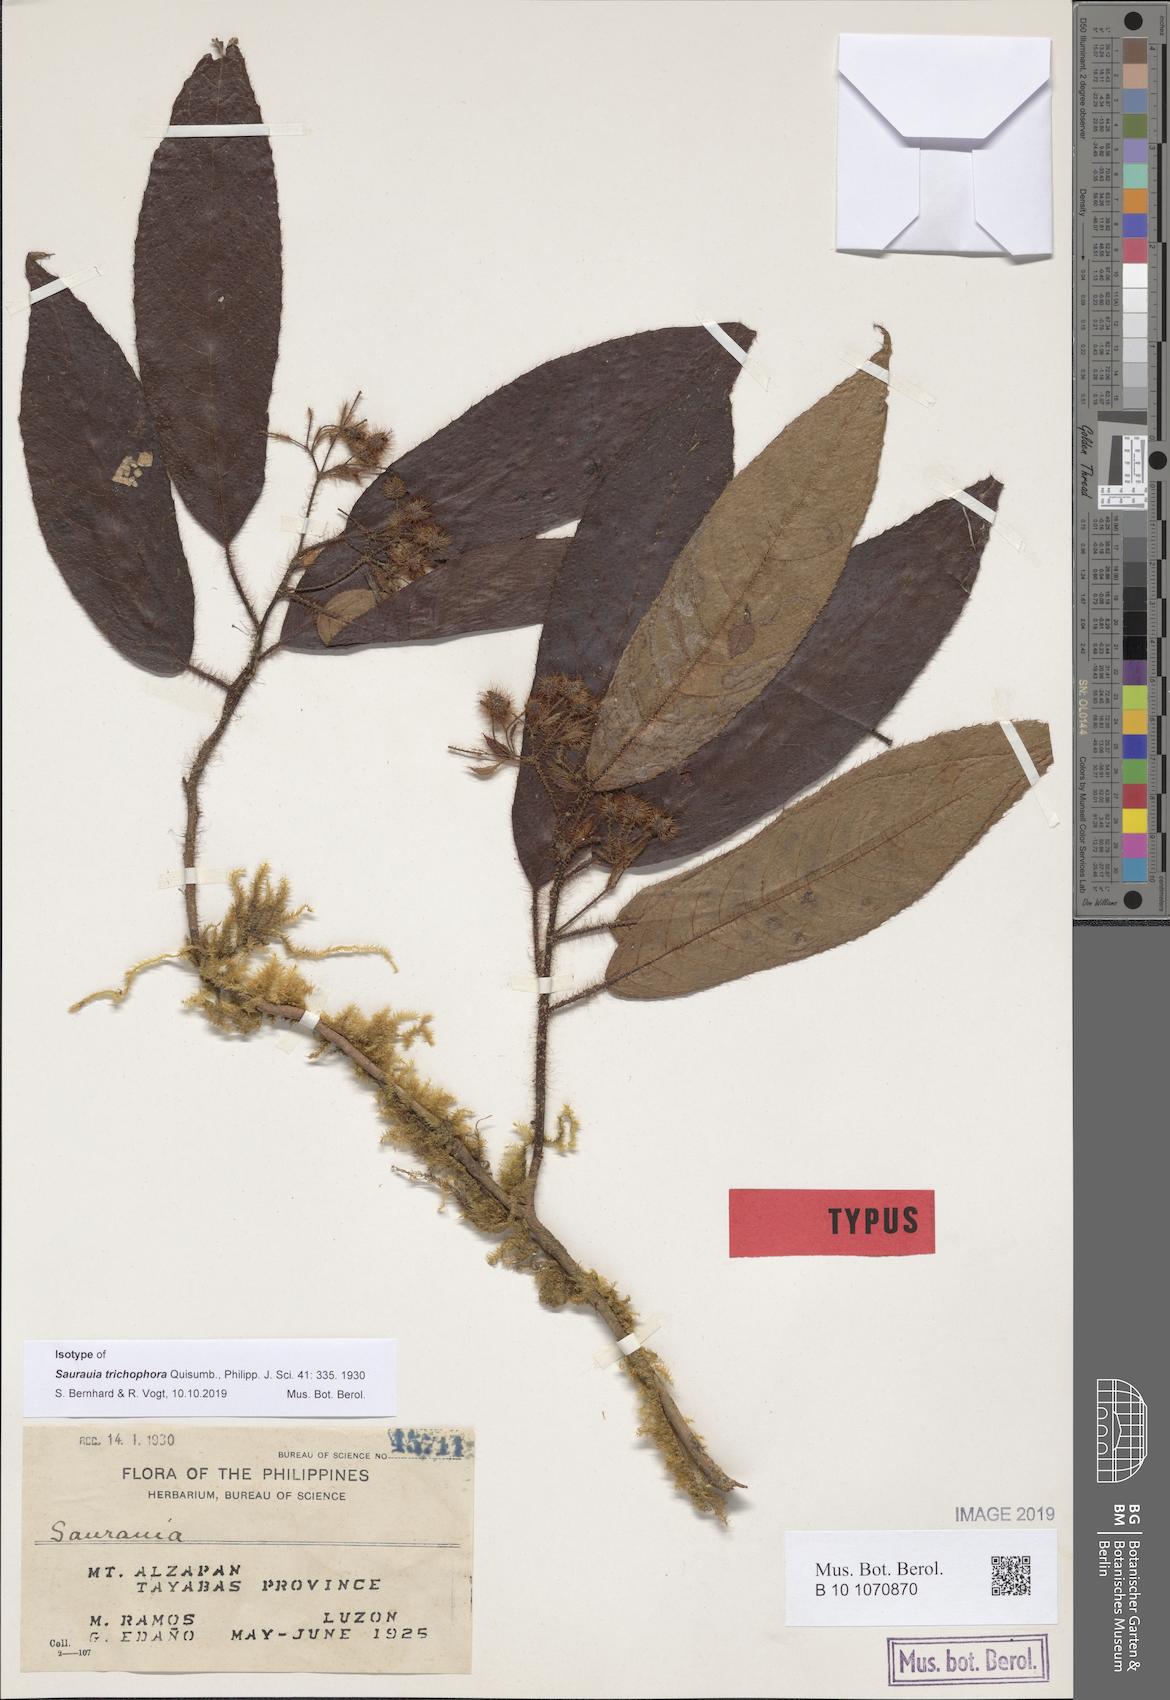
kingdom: Plantae
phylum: Tracheophyta
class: Magnoliopsida
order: Ericales
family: Actinidiaceae
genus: Saurauia
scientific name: Saurauia trichophora
